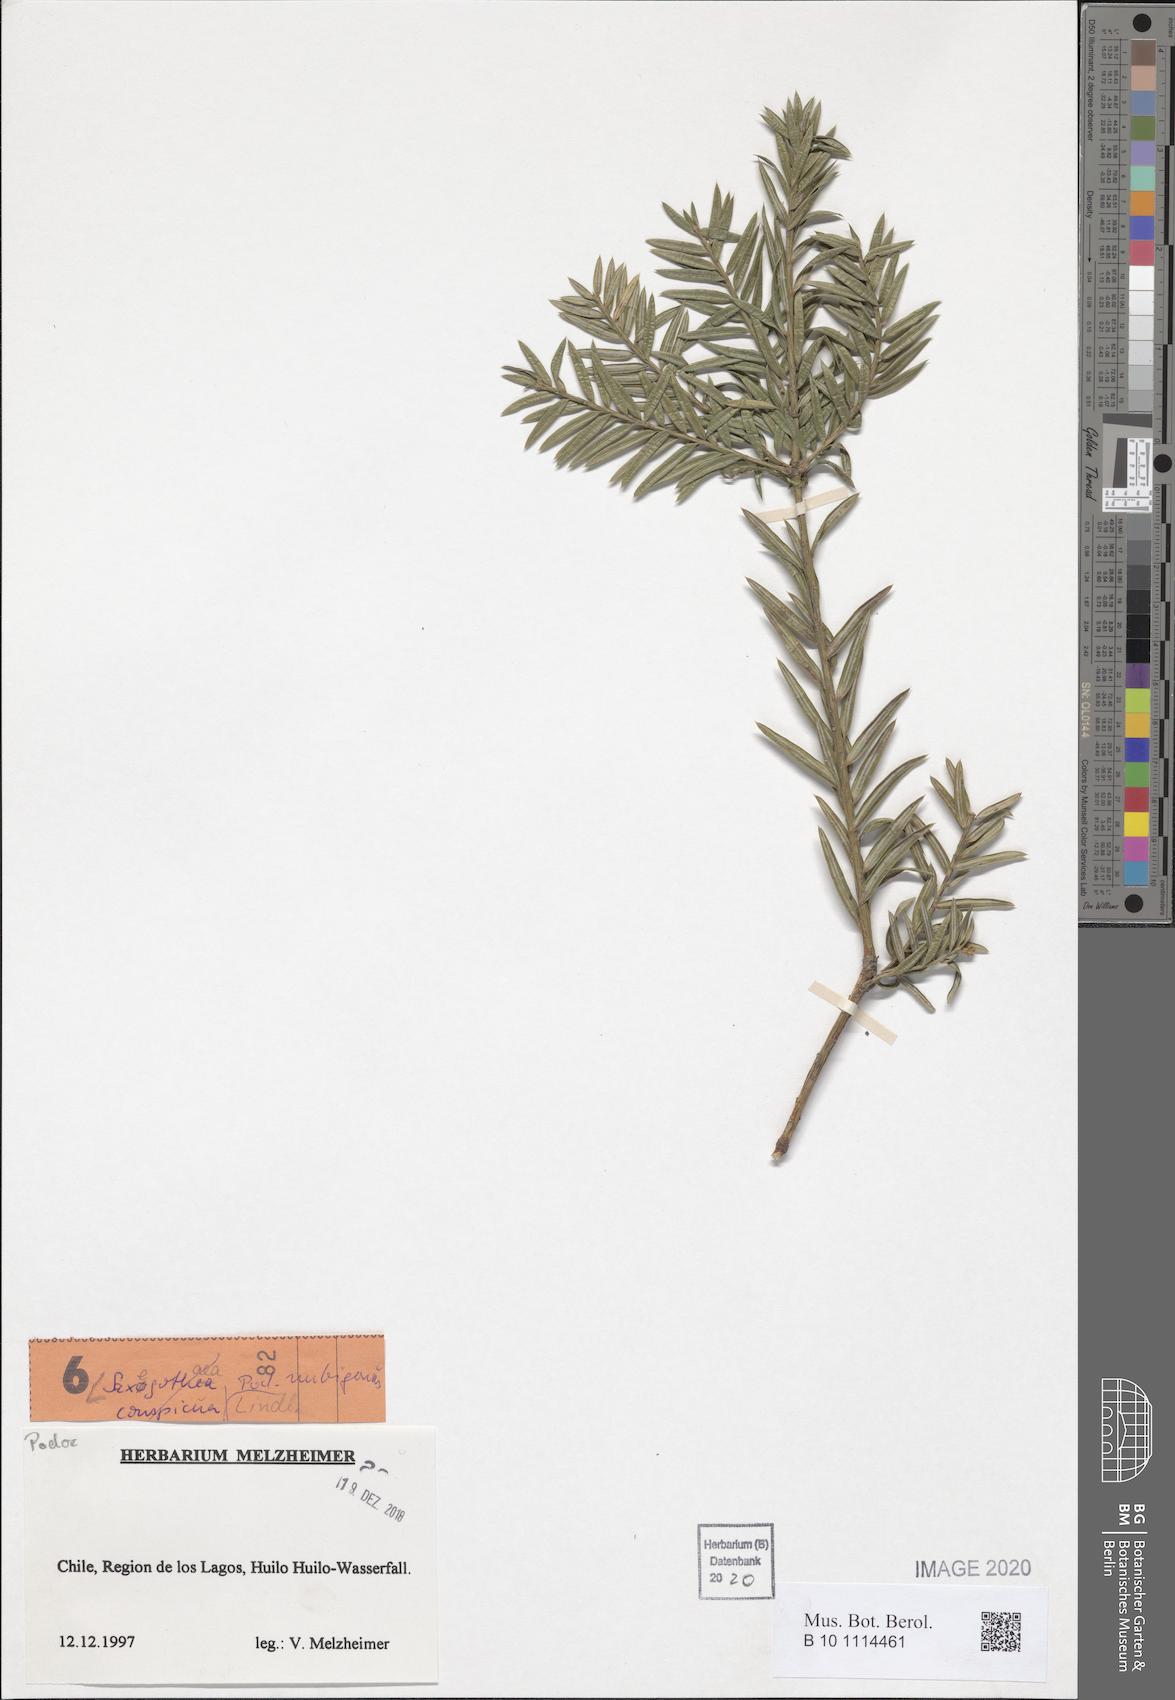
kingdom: Plantae
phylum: Tracheophyta
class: Pinopsida
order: Pinales
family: Podocarpaceae
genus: Saxegothaea
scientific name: Saxegothaea conspicua
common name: Prince albert's yew
